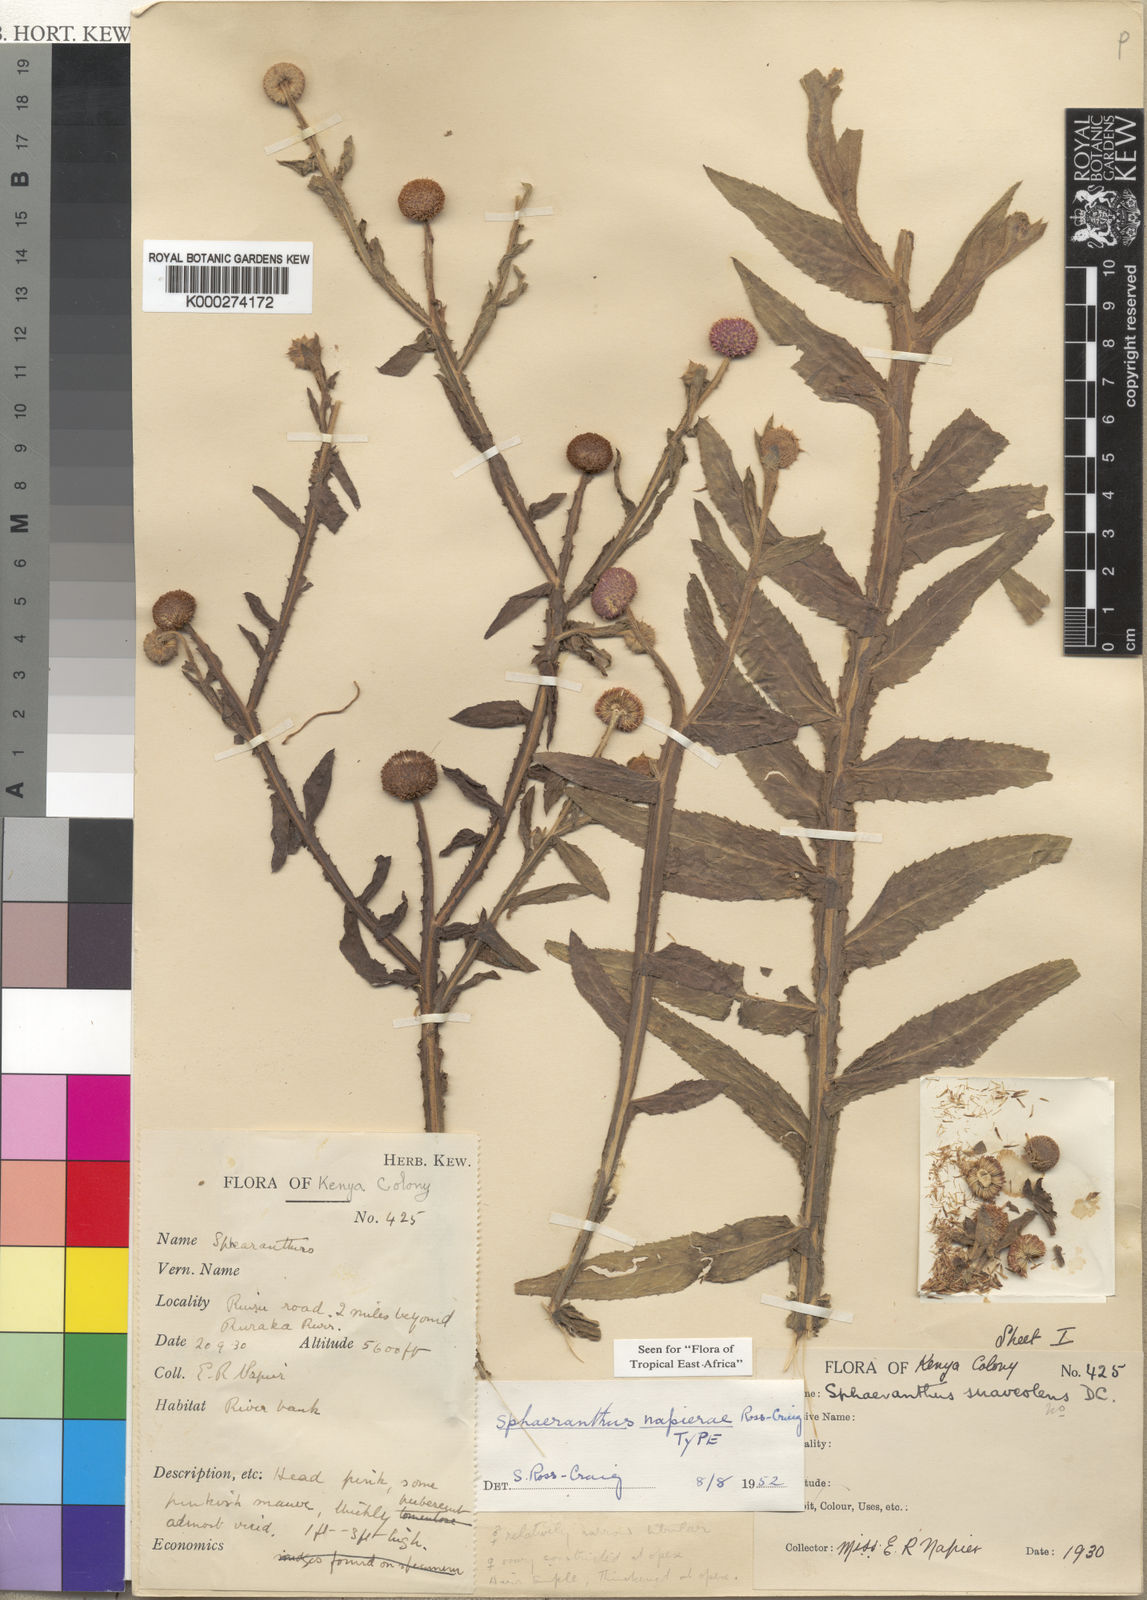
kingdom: Plantae
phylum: Tracheophyta
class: Magnoliopsida
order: Asterales
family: Asteraceae
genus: Sphaeranthus
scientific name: Sphaeranthus suaveolens
